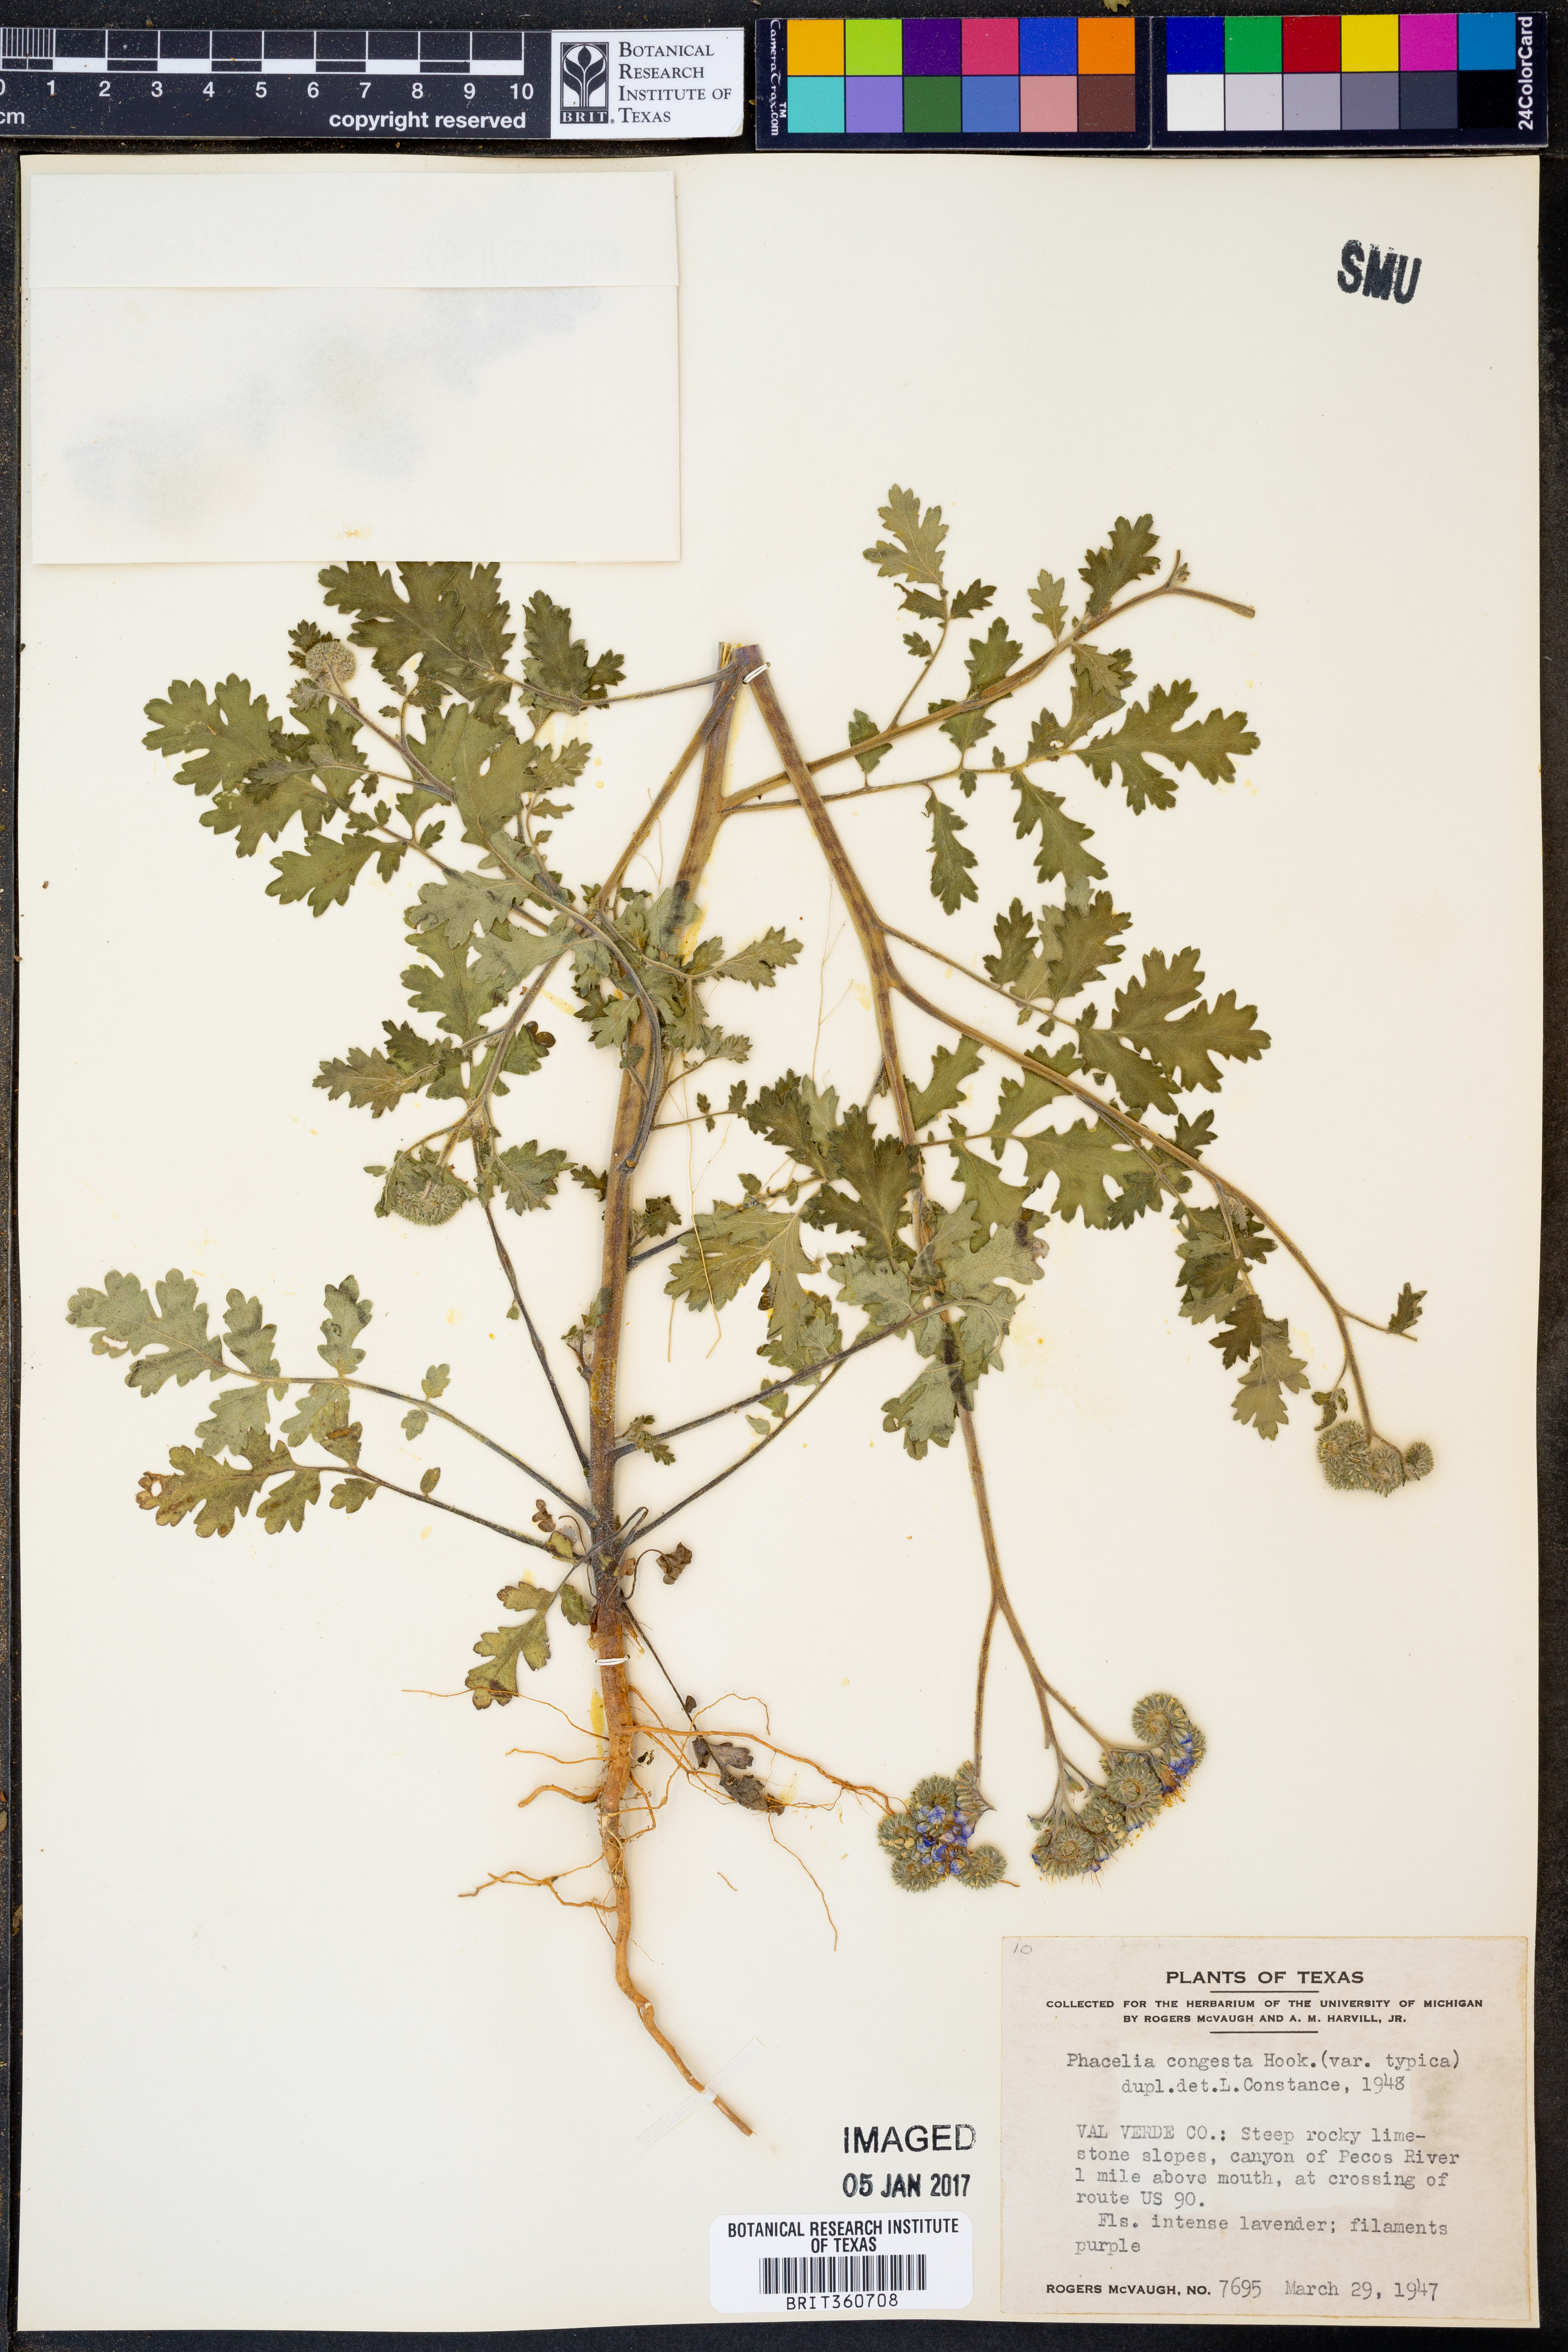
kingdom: Plantae
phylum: Tracheophyta
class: Magnoliopsida
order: Boraginales
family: Hydrophyllaceae
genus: Phacelia
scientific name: Phacelia congesta
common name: Blue curls
